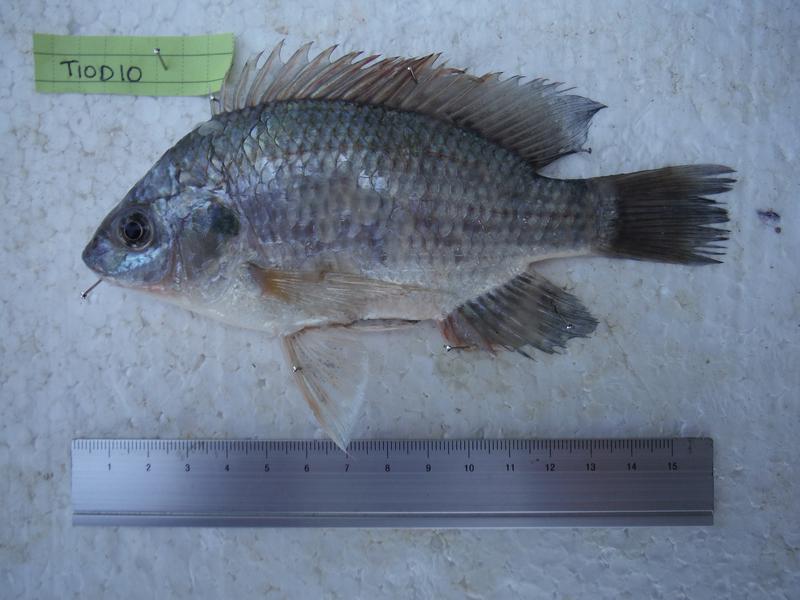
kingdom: Animalia
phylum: Chordata
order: Perciformes
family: Cichlidae
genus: Oreochromis
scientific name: Oreochromis rukwaensis
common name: Lake rukwa tilapia
